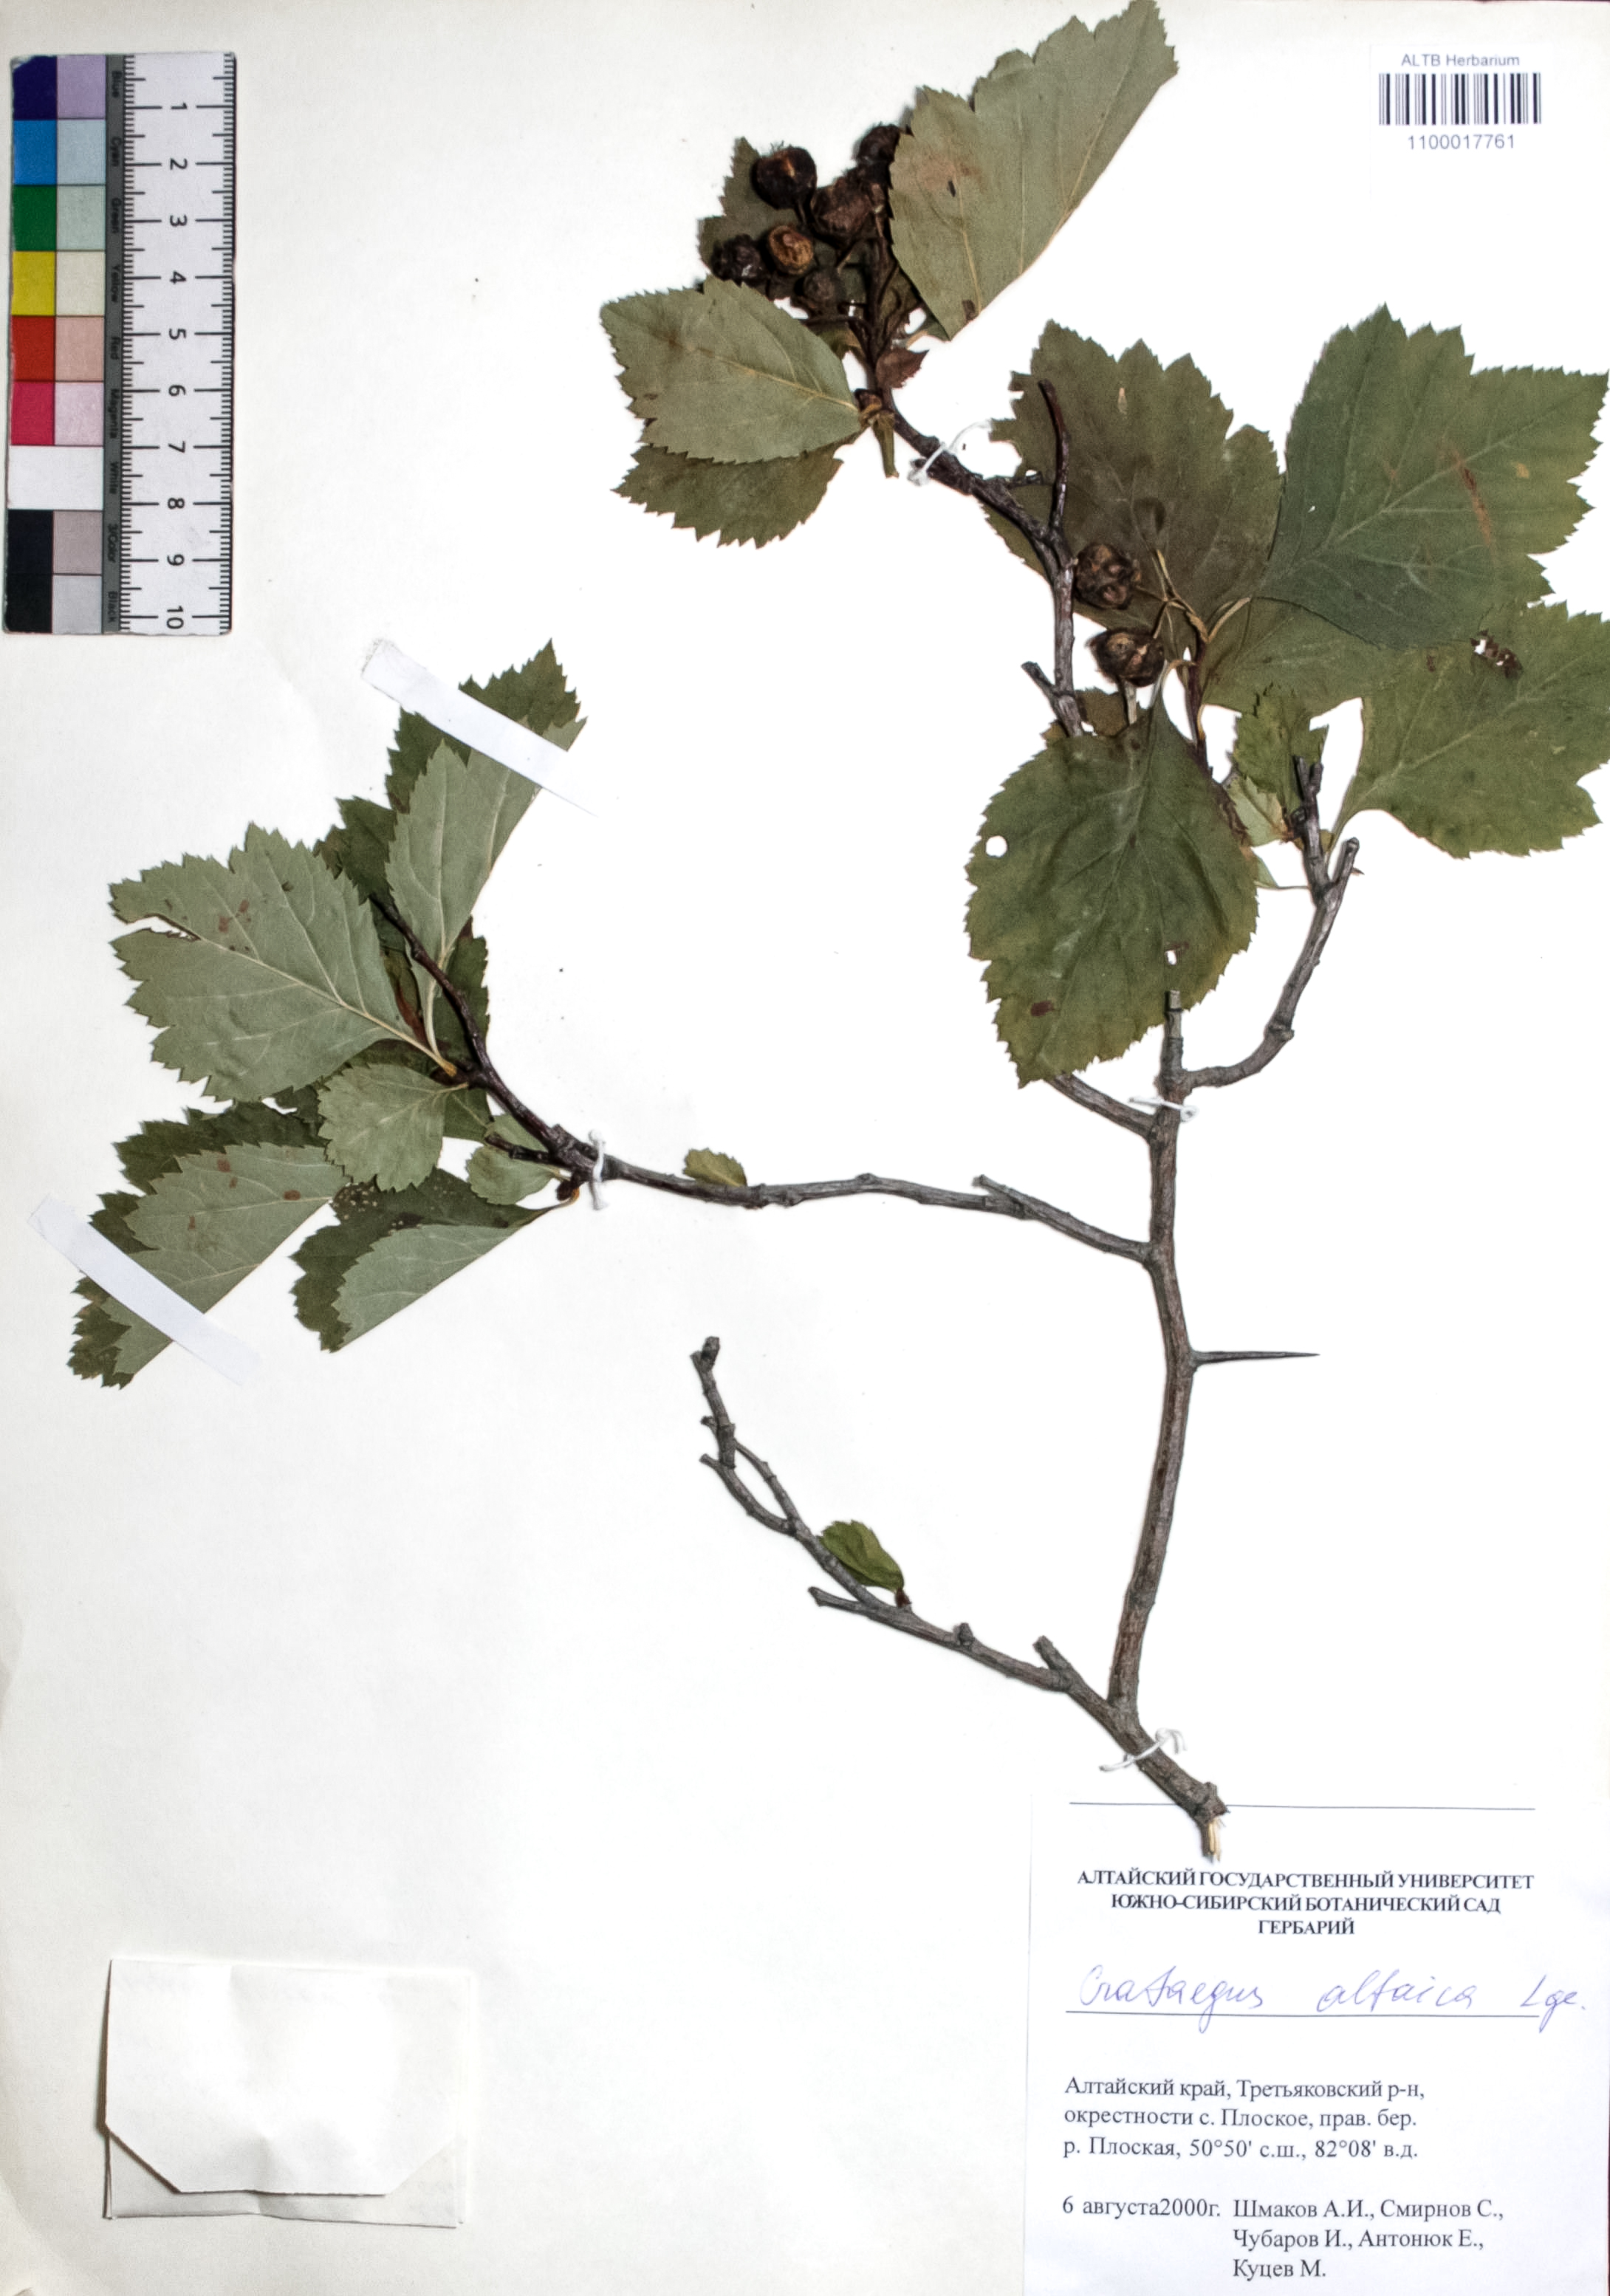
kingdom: Plantae
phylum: Tracheophyta
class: Magnoliopsida
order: Rosales
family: Rosaceae
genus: Crataegus
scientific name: Crataegus sanguinea
